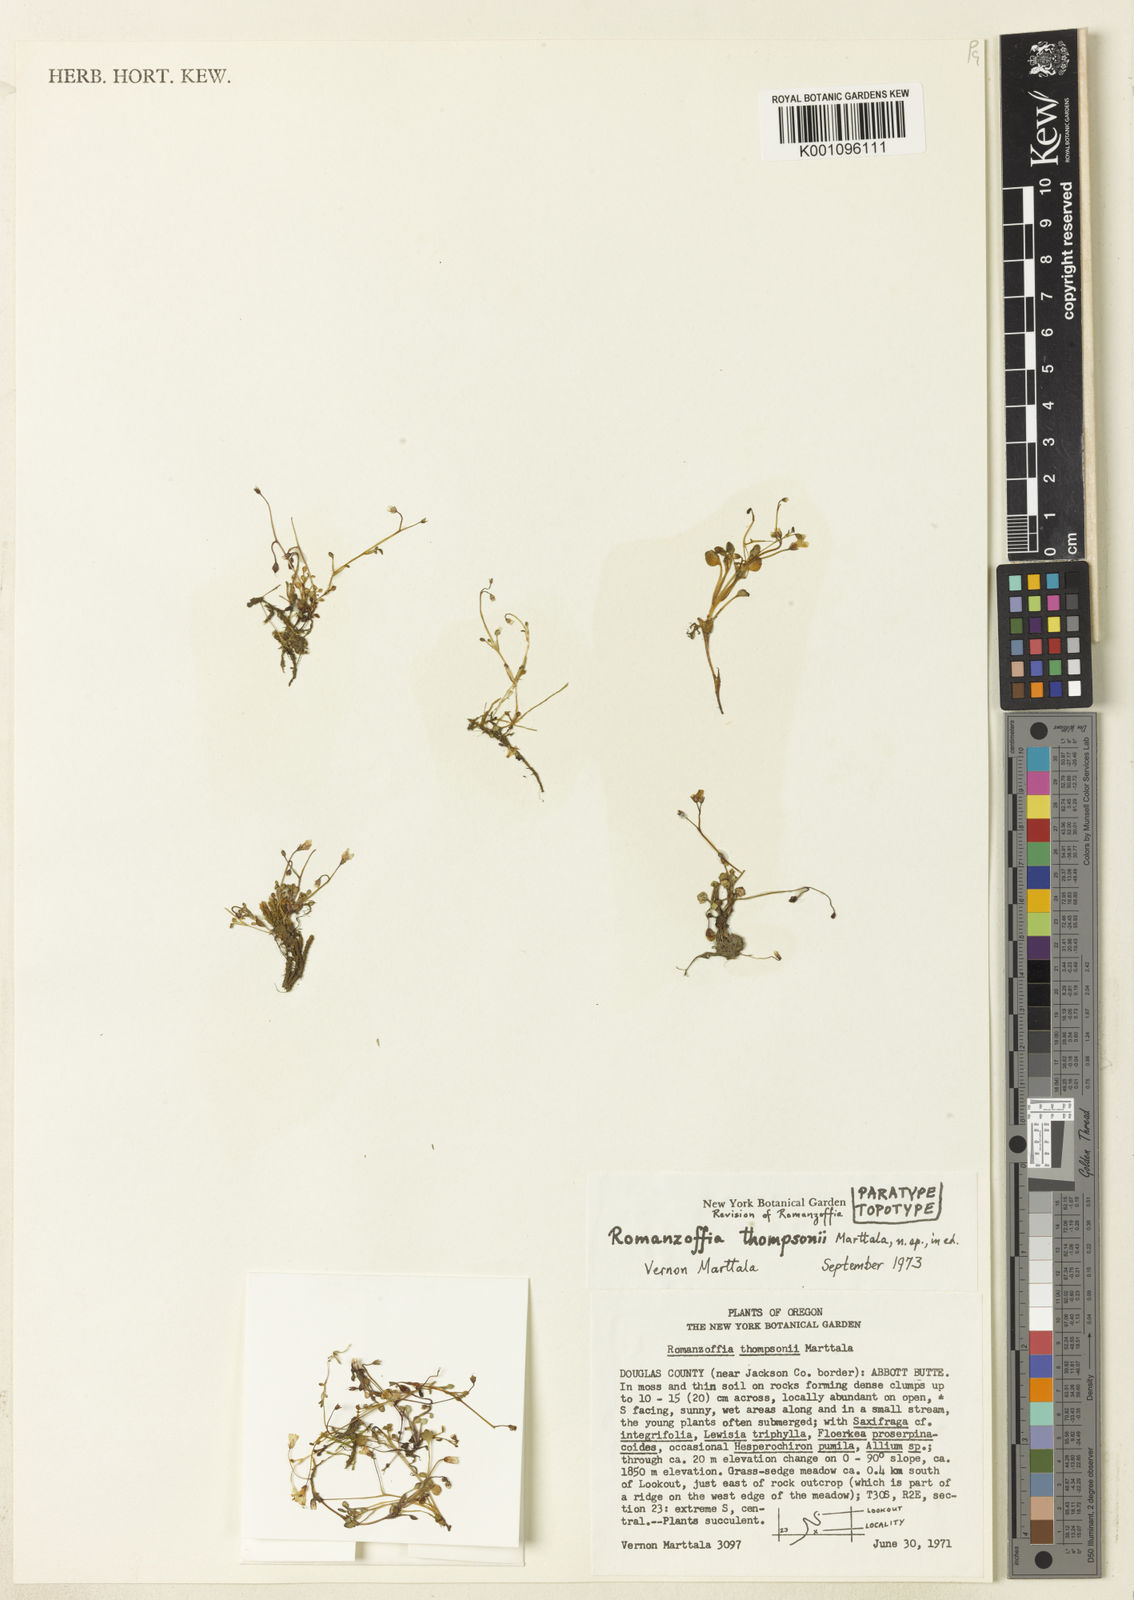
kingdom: Plantae
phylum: Tracheophyta
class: Magnoliopsida
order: Boraginales
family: Hydrophyllaceae
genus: Romanzoffia
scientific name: Romanzoffia thompsonii
